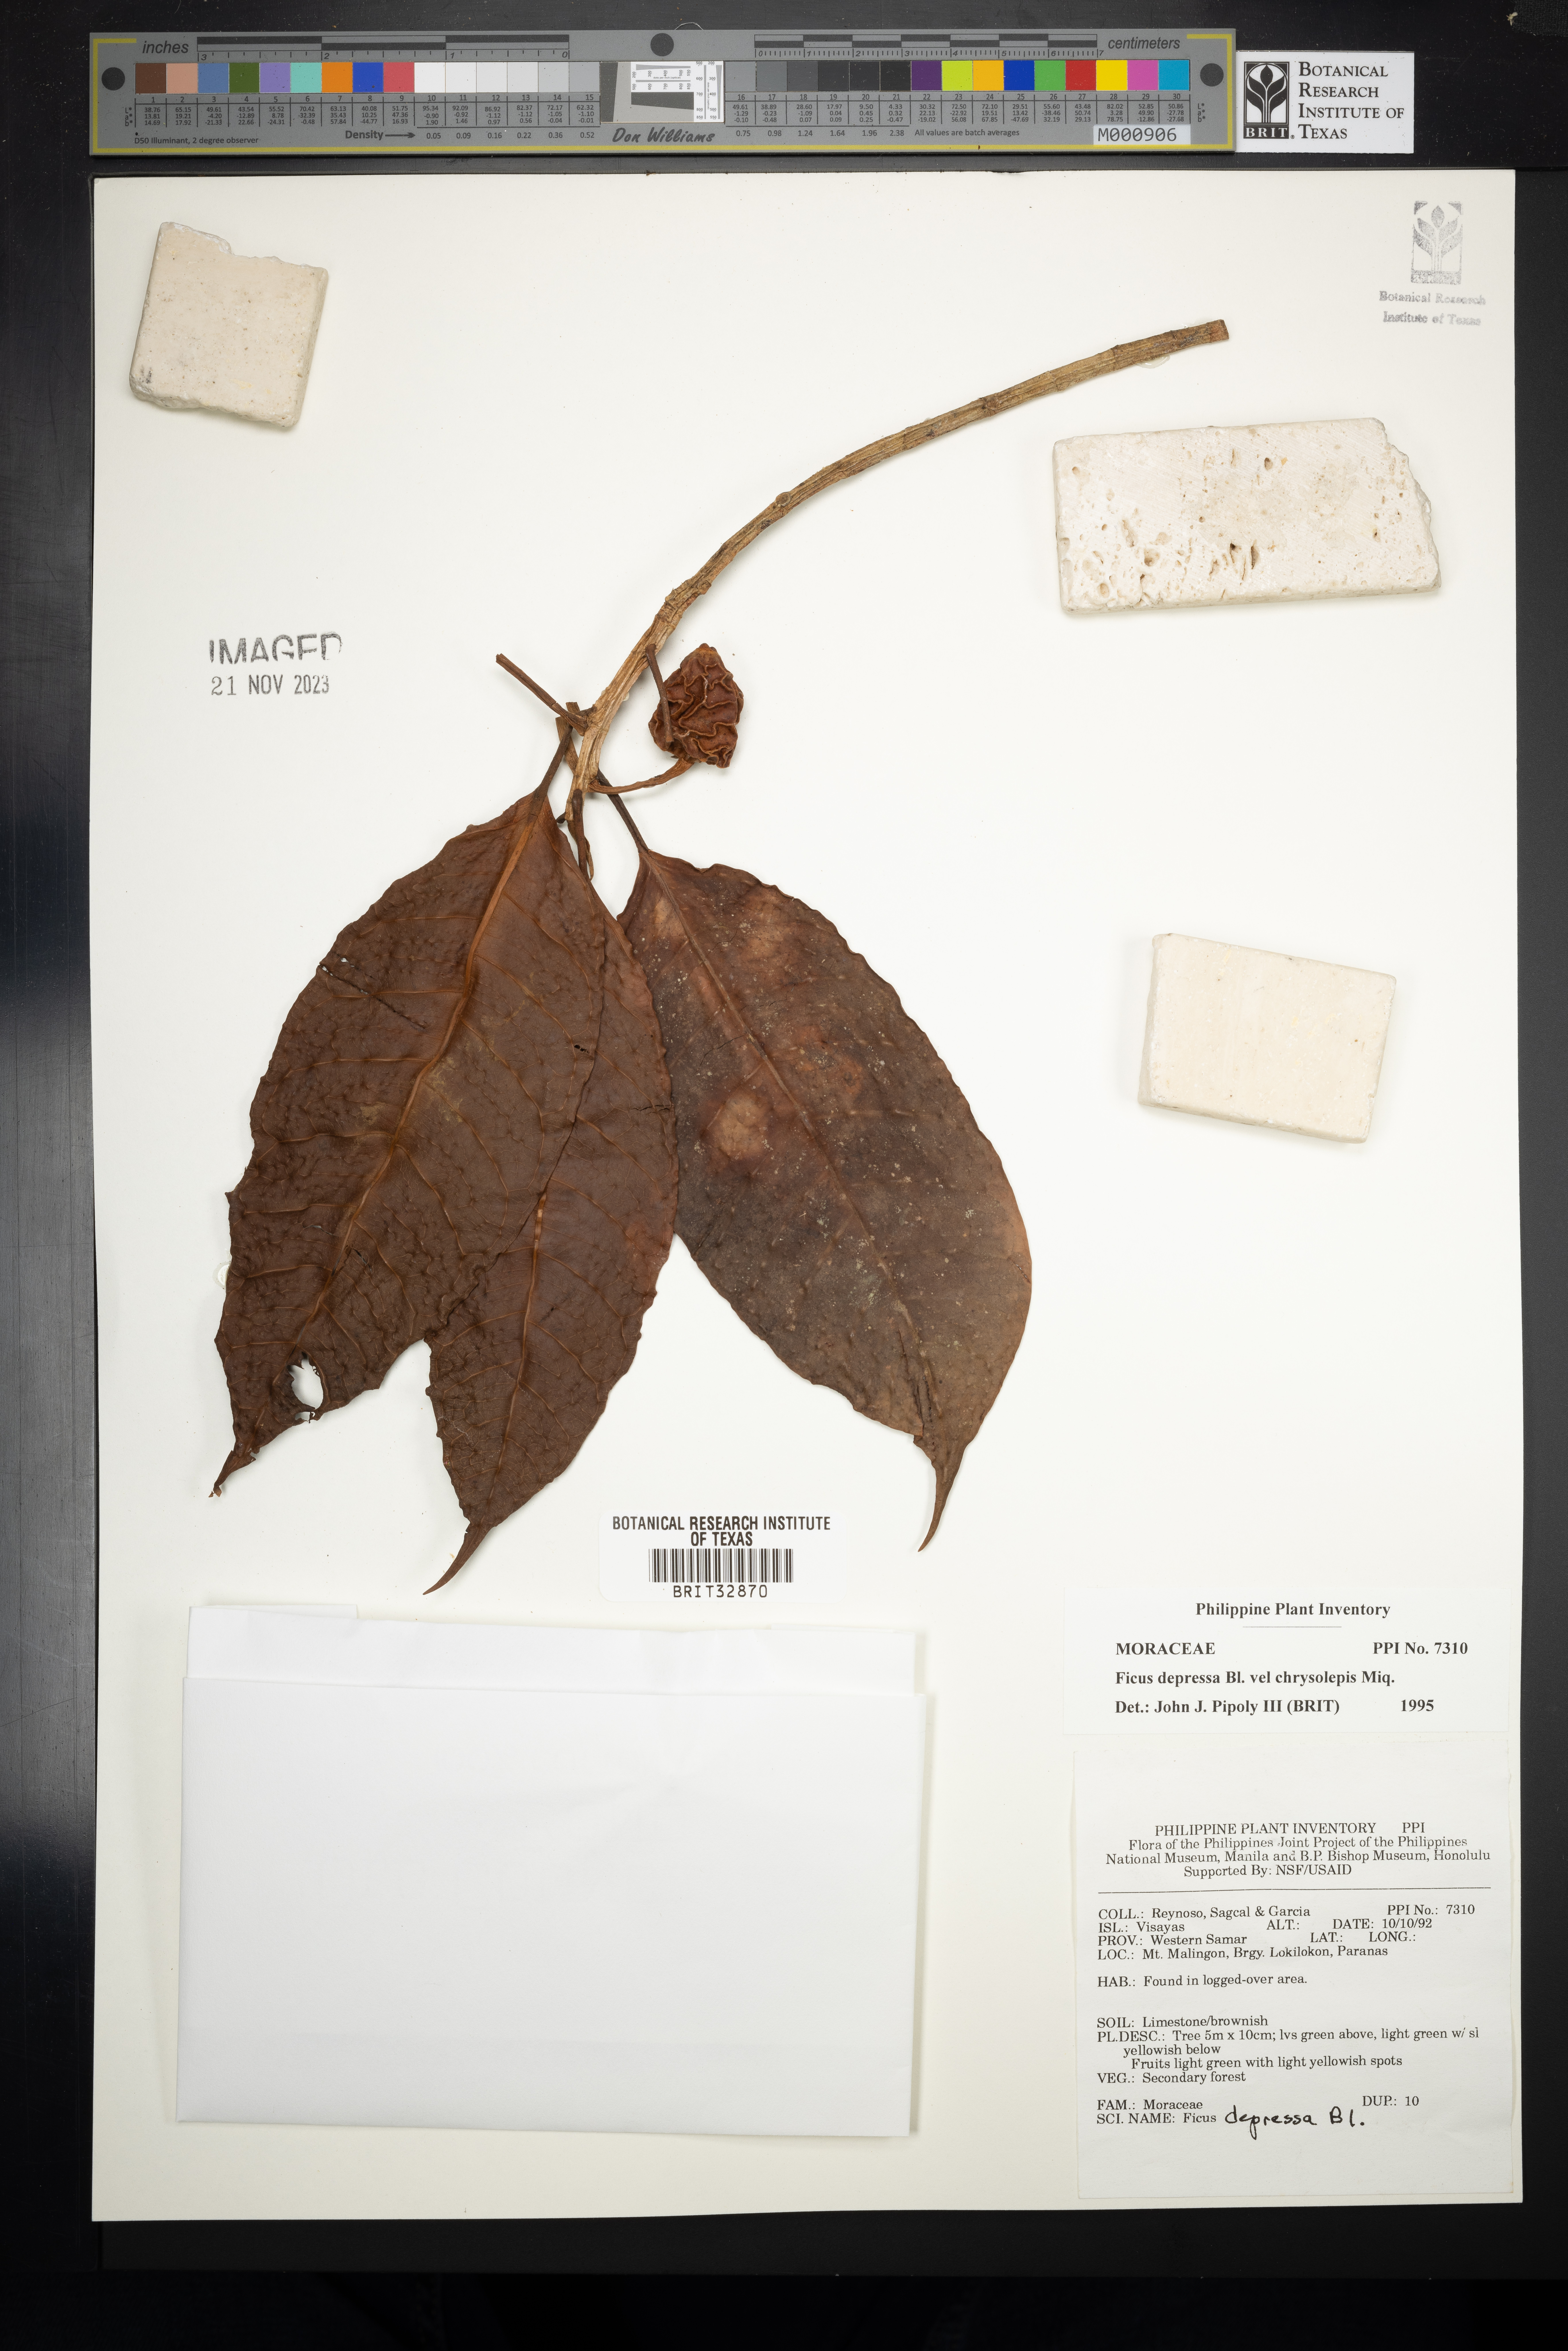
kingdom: Plantae
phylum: Tracheophyta
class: Magnoliopsida
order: Rosales
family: Moraceae
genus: Ficus
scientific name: Ficus depressa
